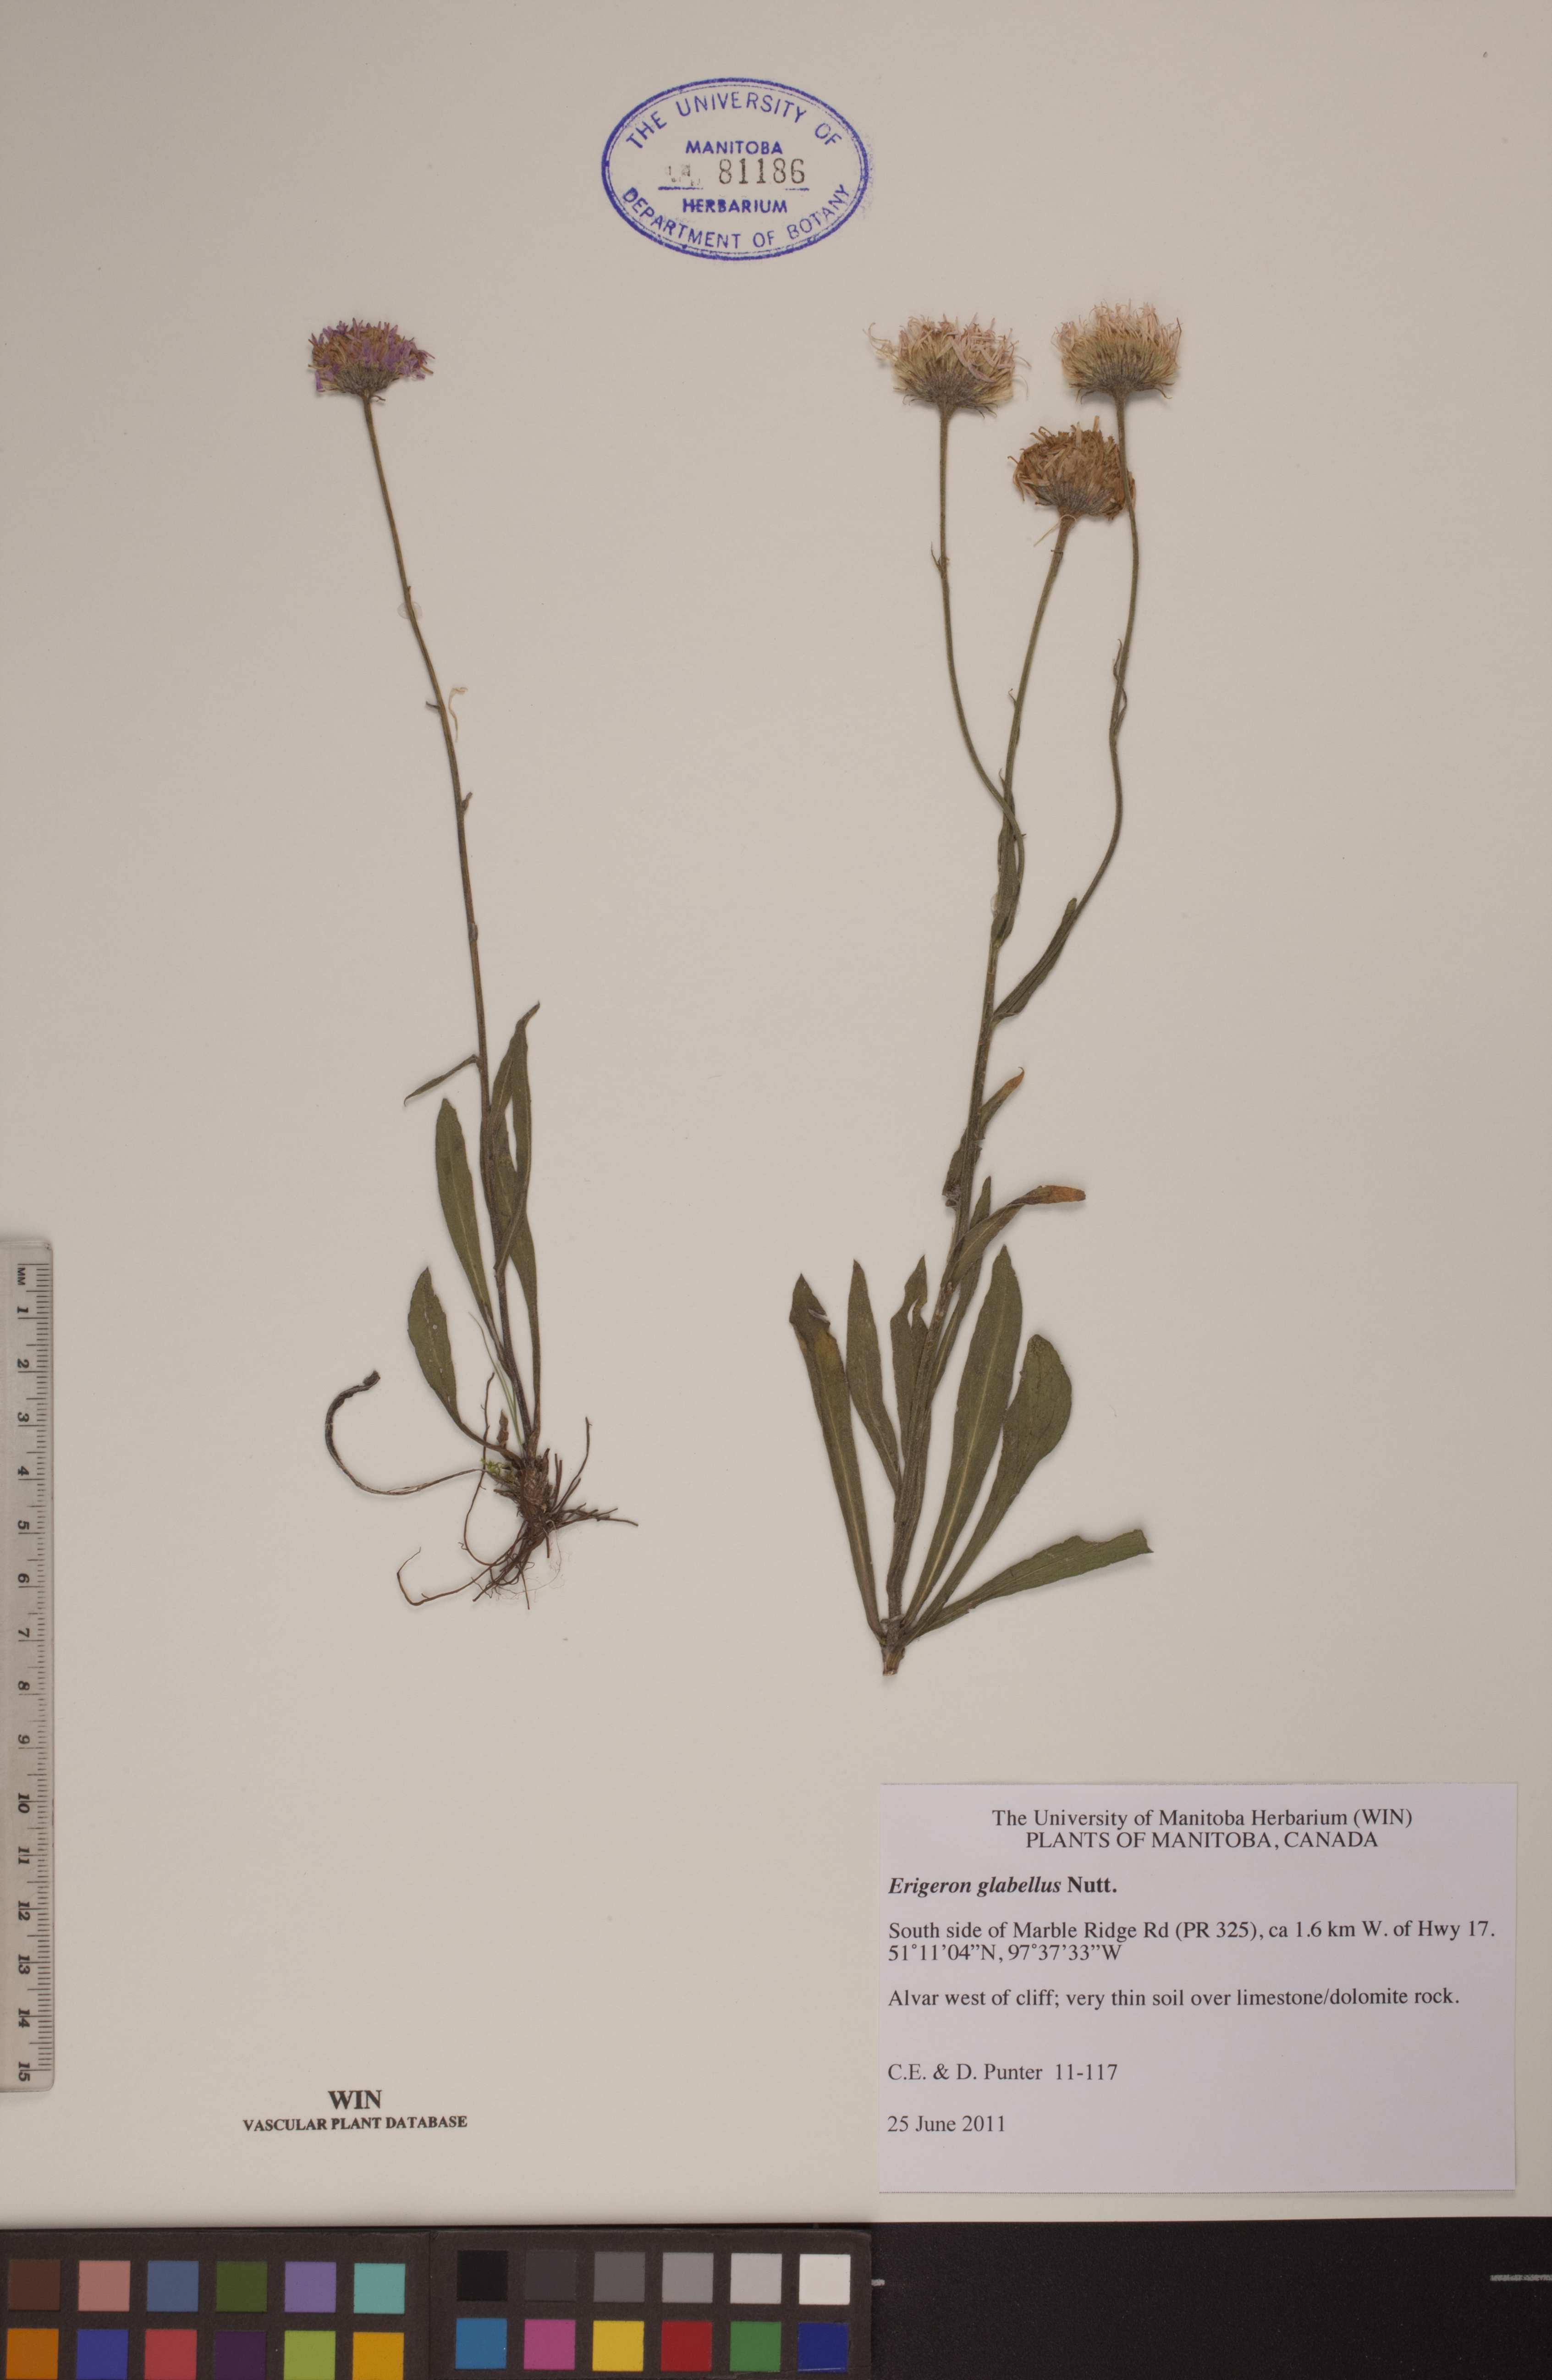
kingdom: Plantae
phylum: Tracheophyta
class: Magnoliopsida
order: Asterales
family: Asteraceae
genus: Erigeron
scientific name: Erigeron glabellus
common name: Smooth fleabane
